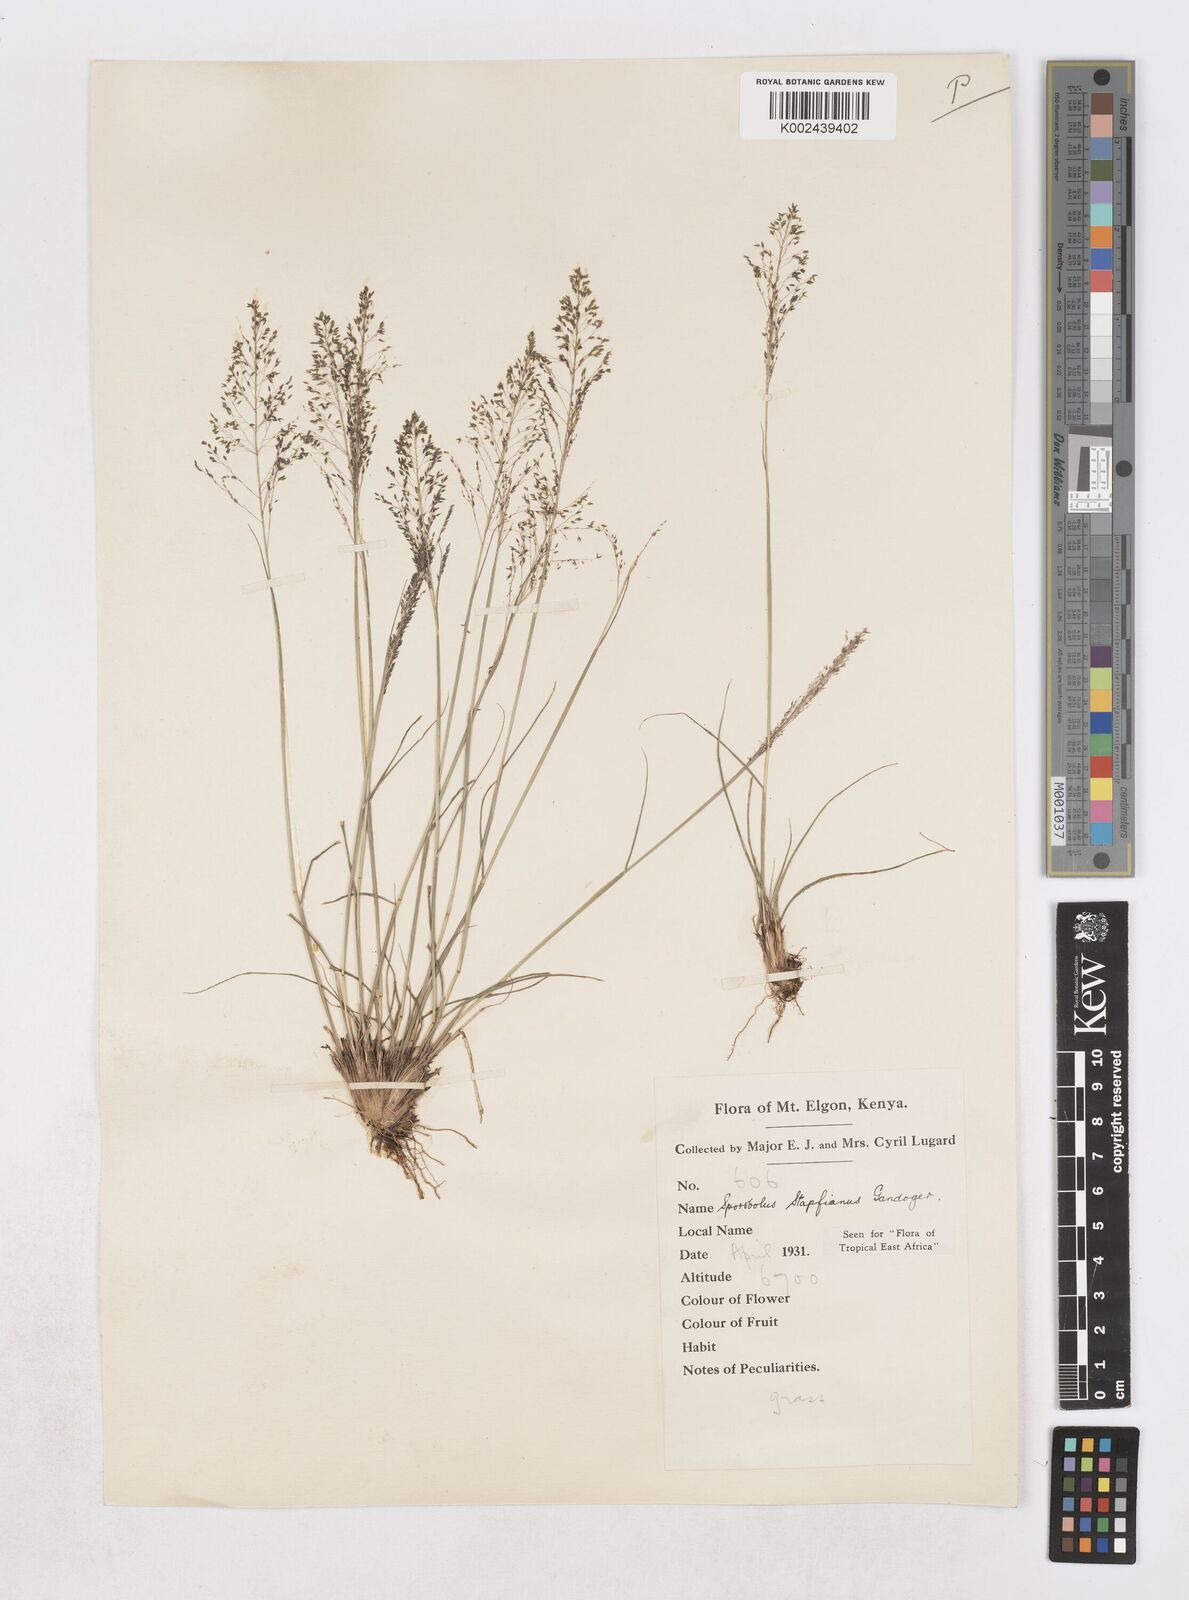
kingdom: Plantae
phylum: Tracheophyta
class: Liliopsida
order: Poales
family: Poaceae
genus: Sporobolus
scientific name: Sporobolus stapfianus
